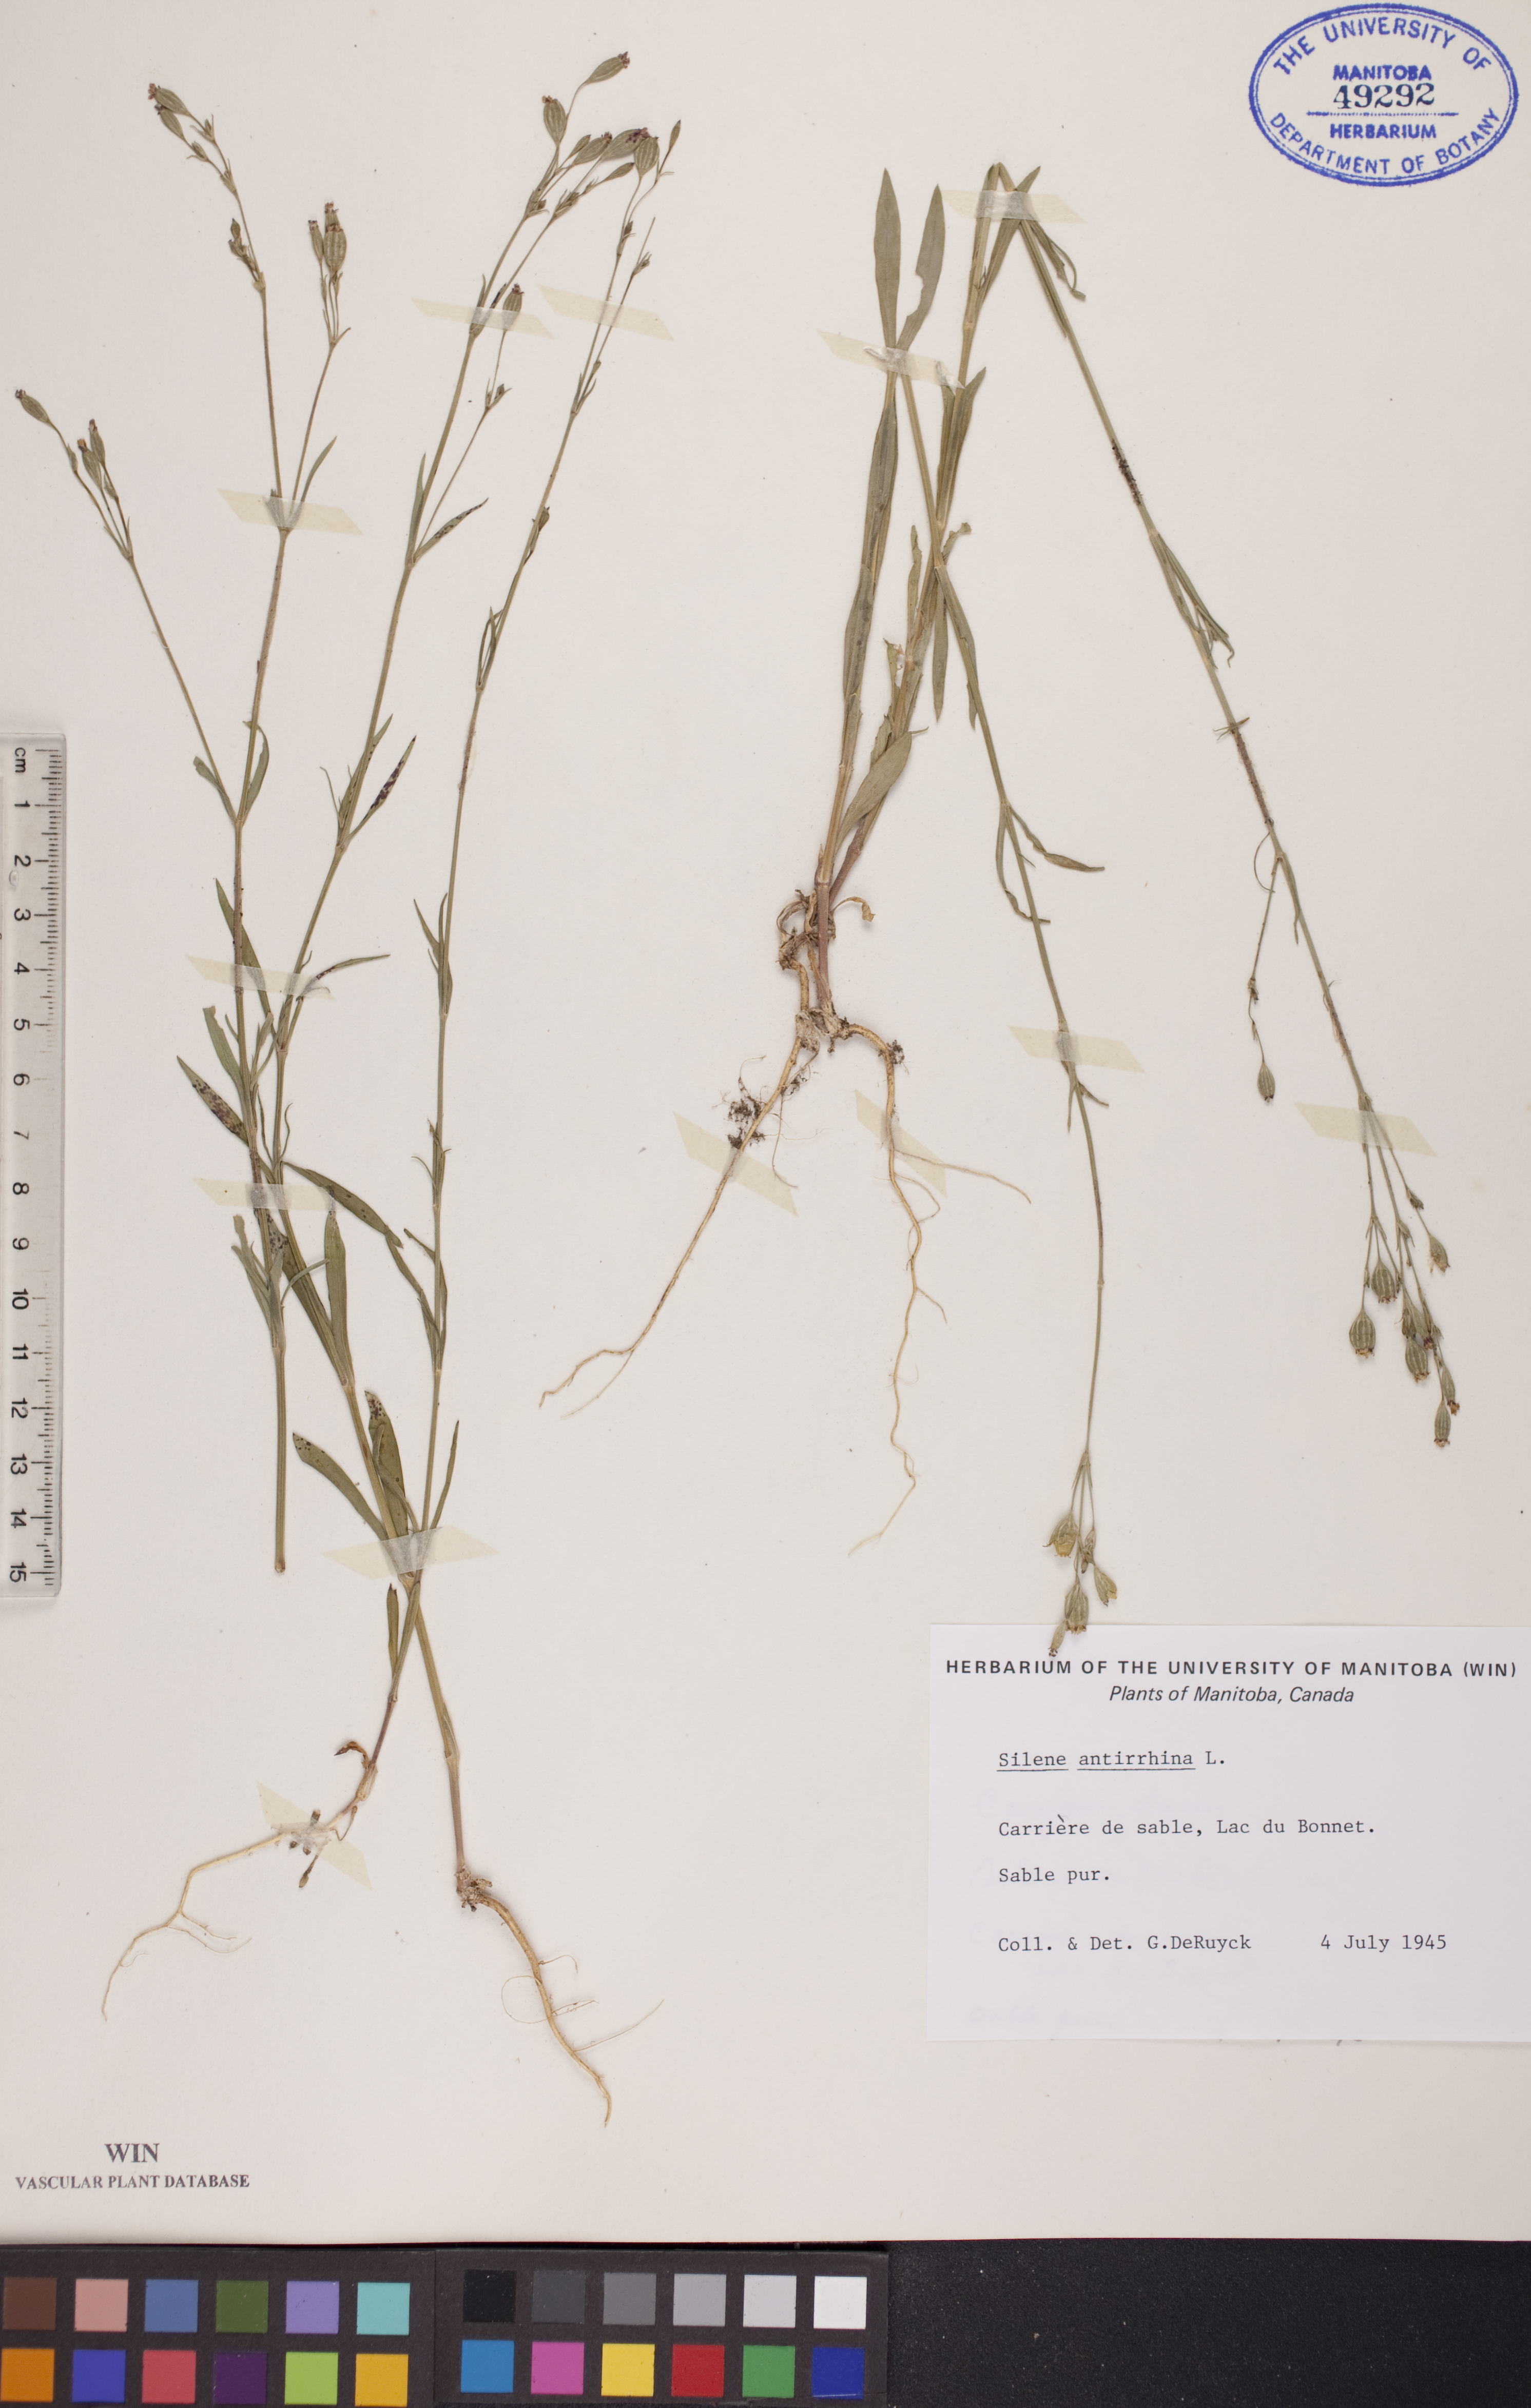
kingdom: Plantae
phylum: Tracheophyta
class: Magnoliopsida
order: Caryophyllales
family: Caryophyllaceae
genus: Silene
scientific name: Silene antirrhina
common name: Sleepy catchfly
